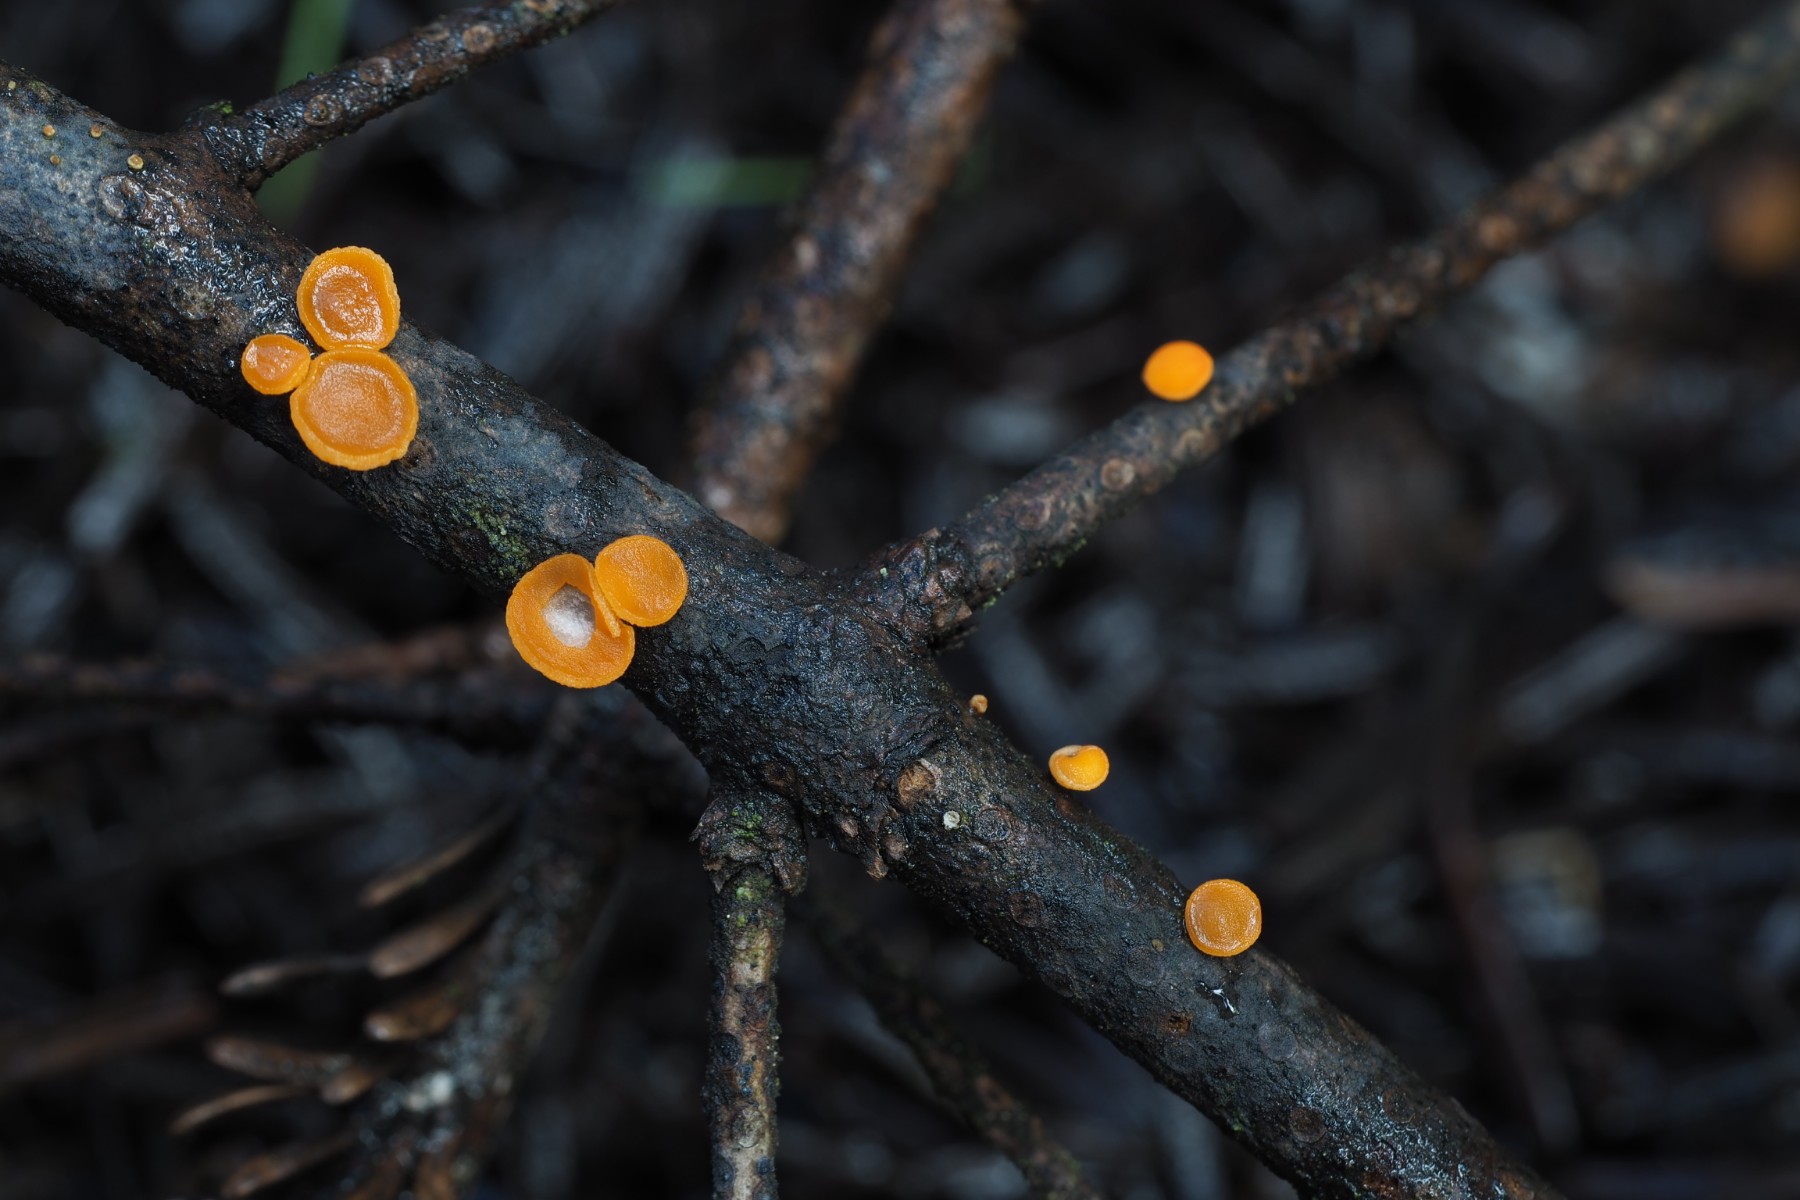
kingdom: Fungi
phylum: Ascomycota
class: Pezizomycetes
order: Pezizales
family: Sarcoscyphaceae
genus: Pithya
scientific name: Pithya vulgaris
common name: stor dukatbæger
